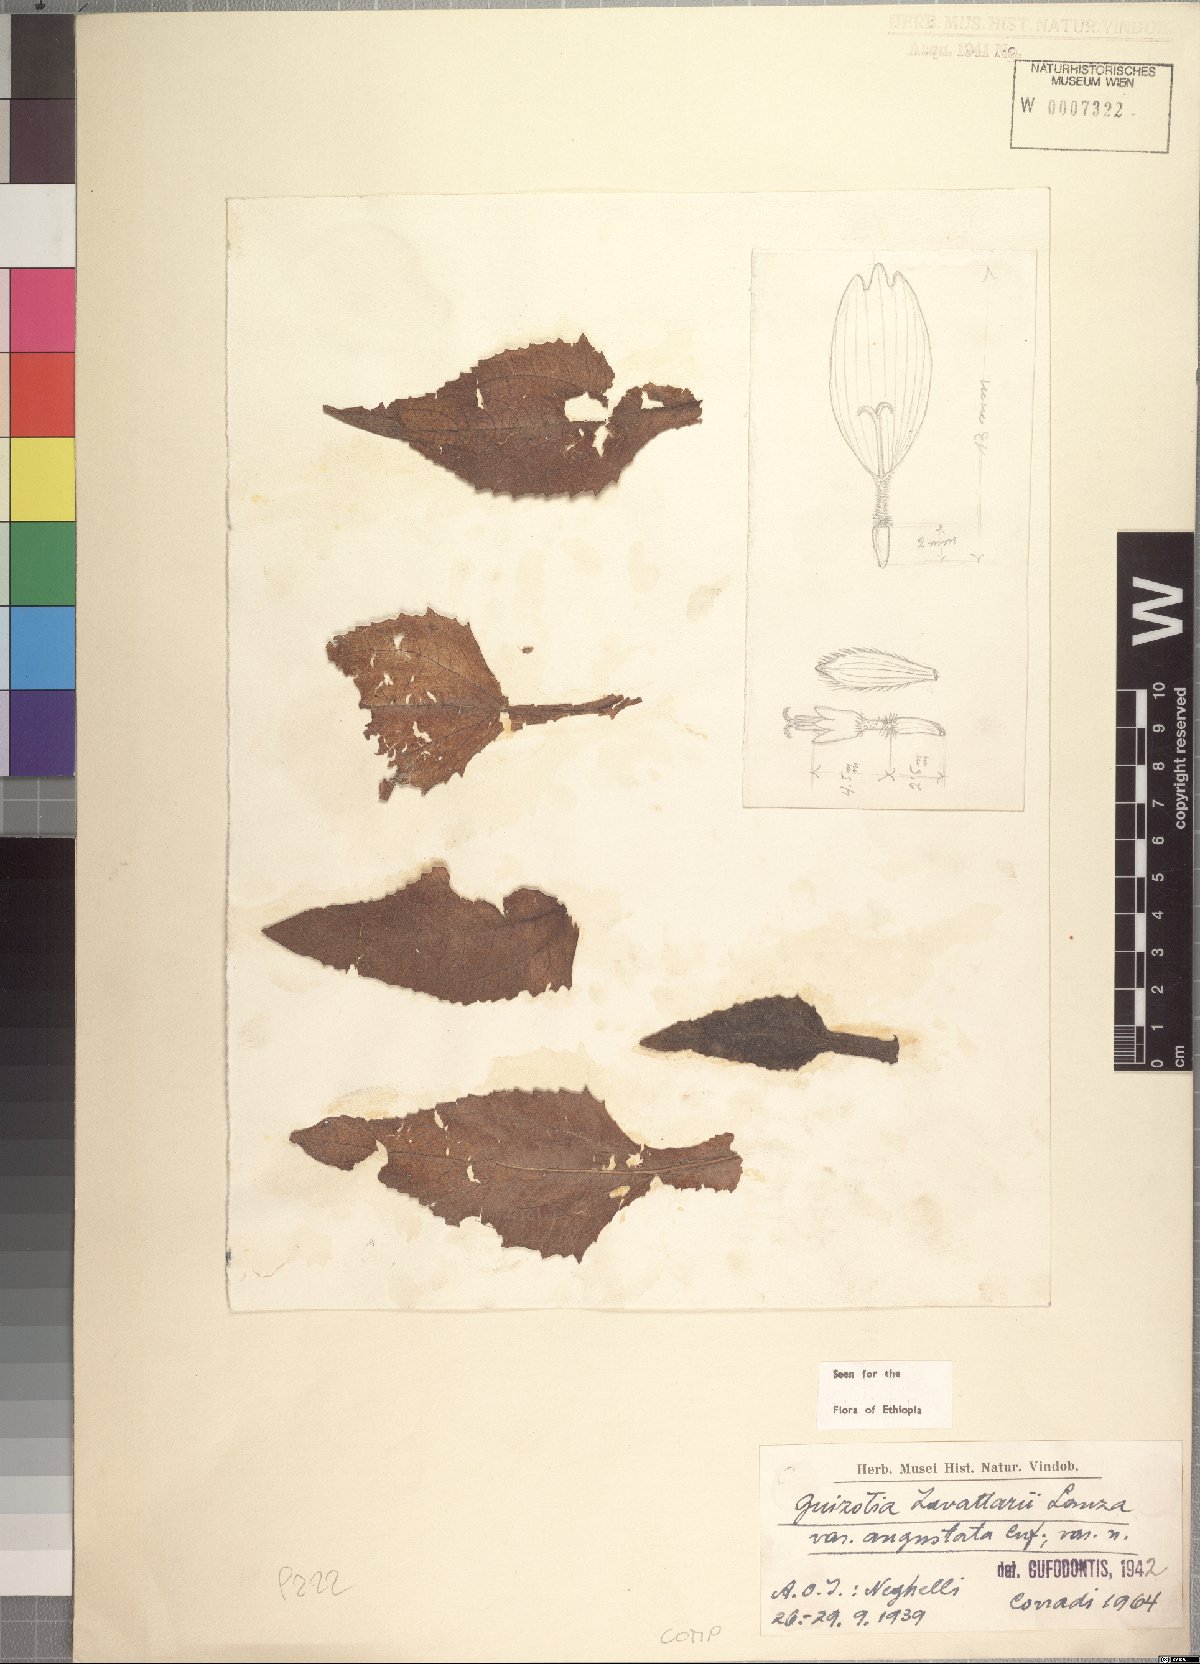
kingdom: Plantae
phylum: Tracheophyta
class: Magnoliopsida
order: Asterales
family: Asteraceae
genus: Guizotia
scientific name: Guizotia zavattarii
